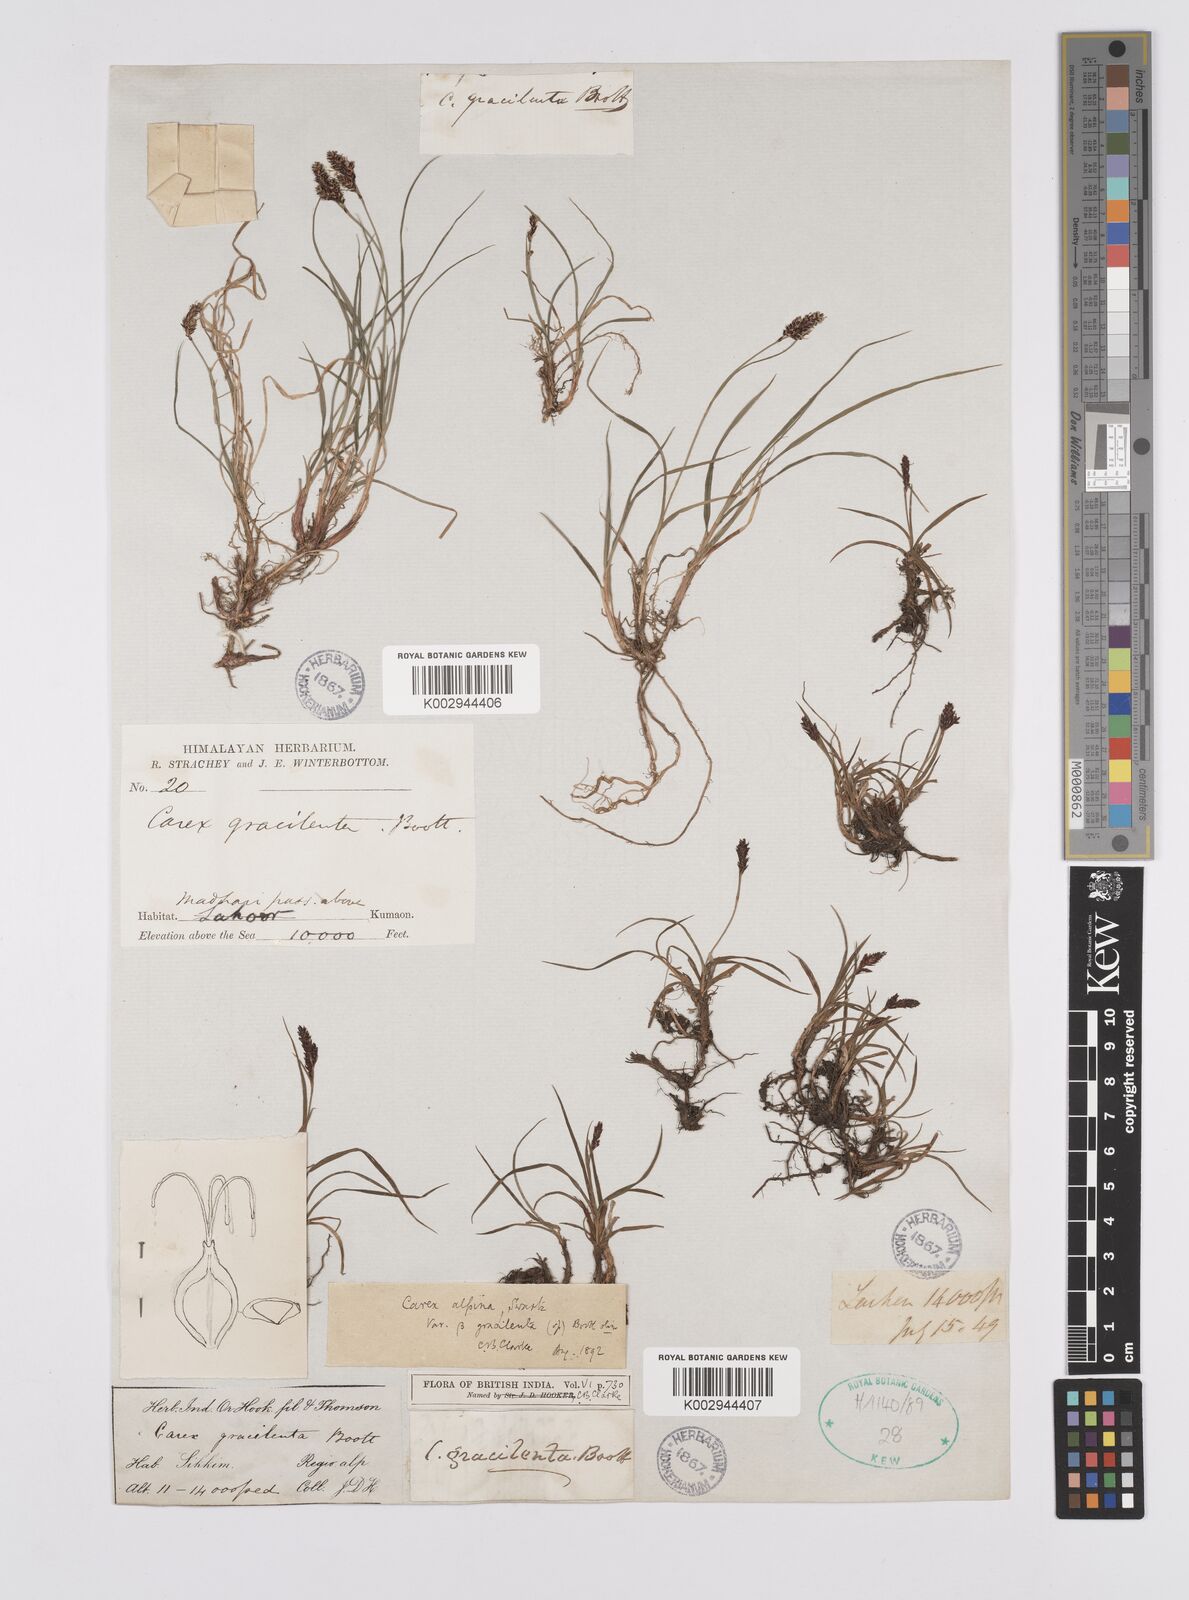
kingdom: Plantae
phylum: Tracheophyta
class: Liliopsida
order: Poales
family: Cyperaceae
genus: Carex
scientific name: Carex norvegica
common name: Close-headed alpine-sedge
